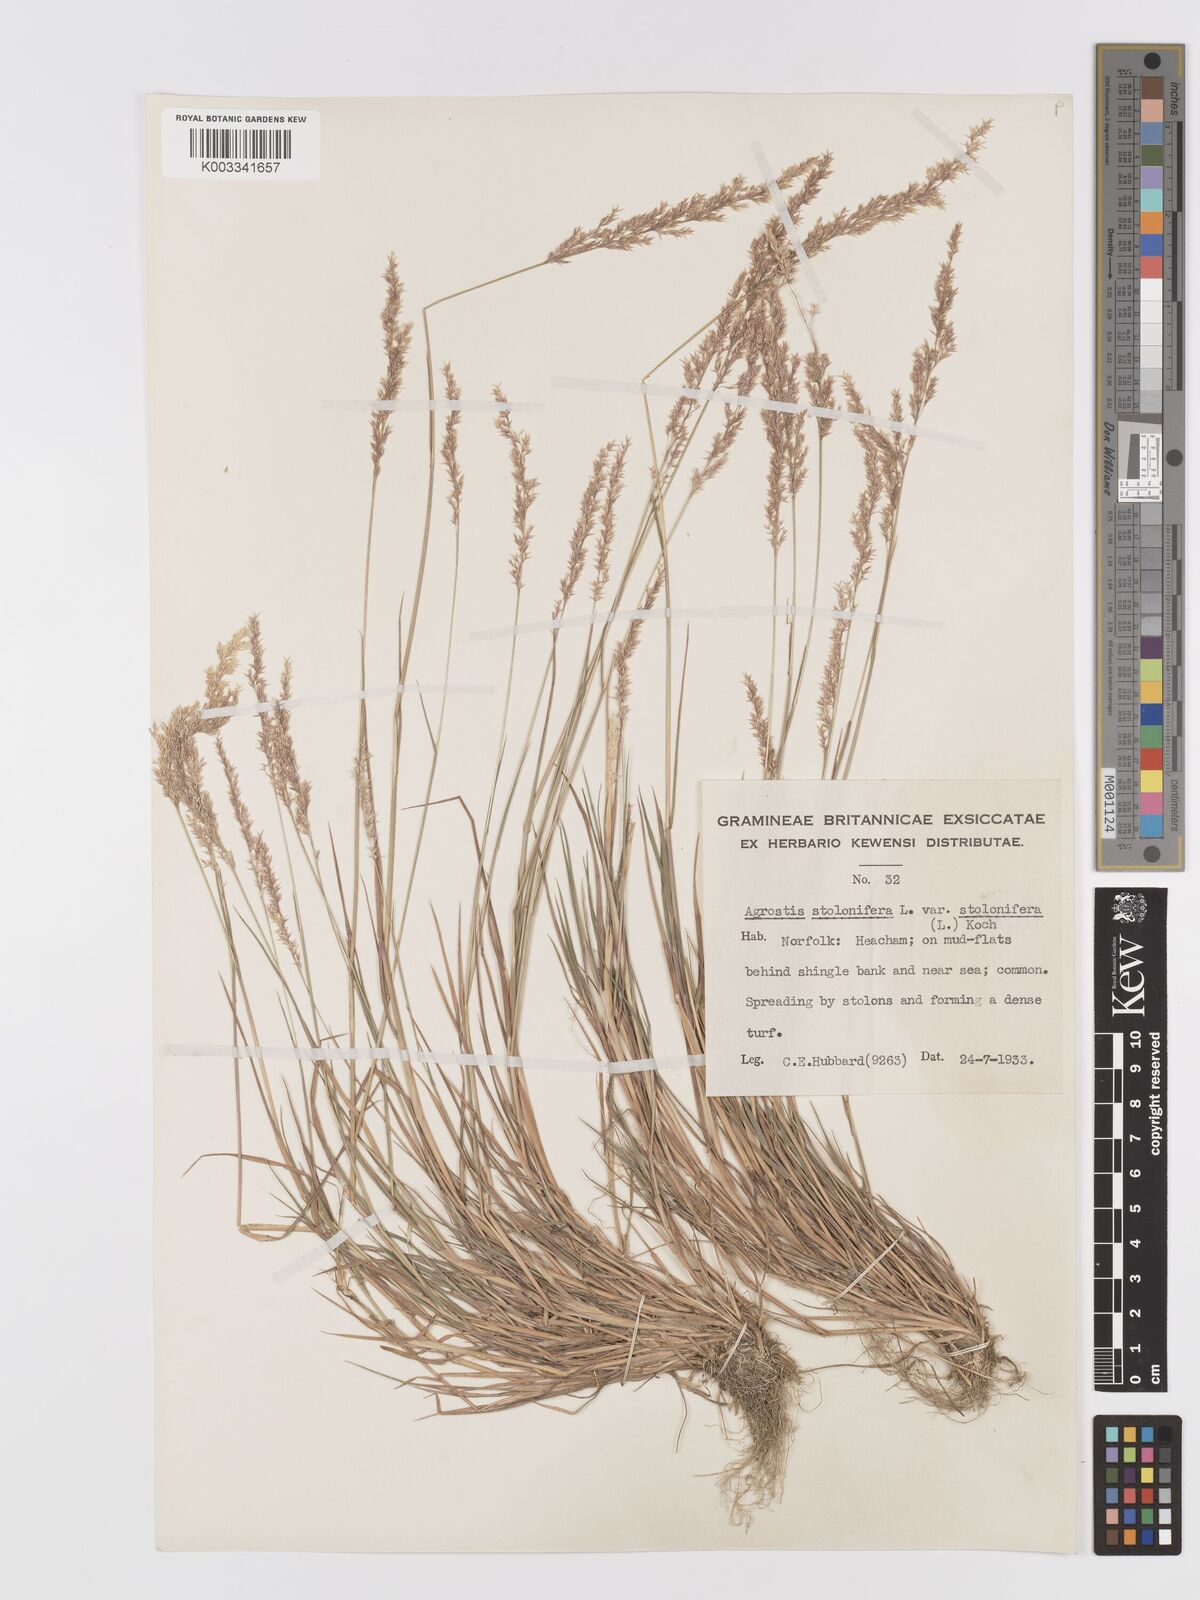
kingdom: Plantae
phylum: Tracheophyta
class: Liliopsida
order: Poales
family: Poaceae
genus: Agrostis
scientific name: Agrostis stolonifera
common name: Creeping bentgrass
